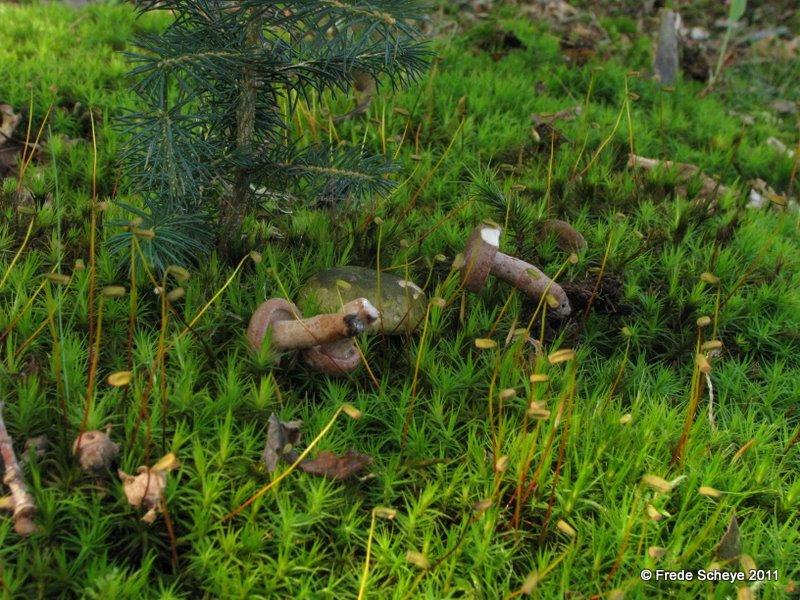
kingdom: Fungi
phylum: Basidiomycota
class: Agaricomycetes
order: Russulales
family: Russulaceae
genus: Lactarius
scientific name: Lactarius necator
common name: manddraber-mælkehat
